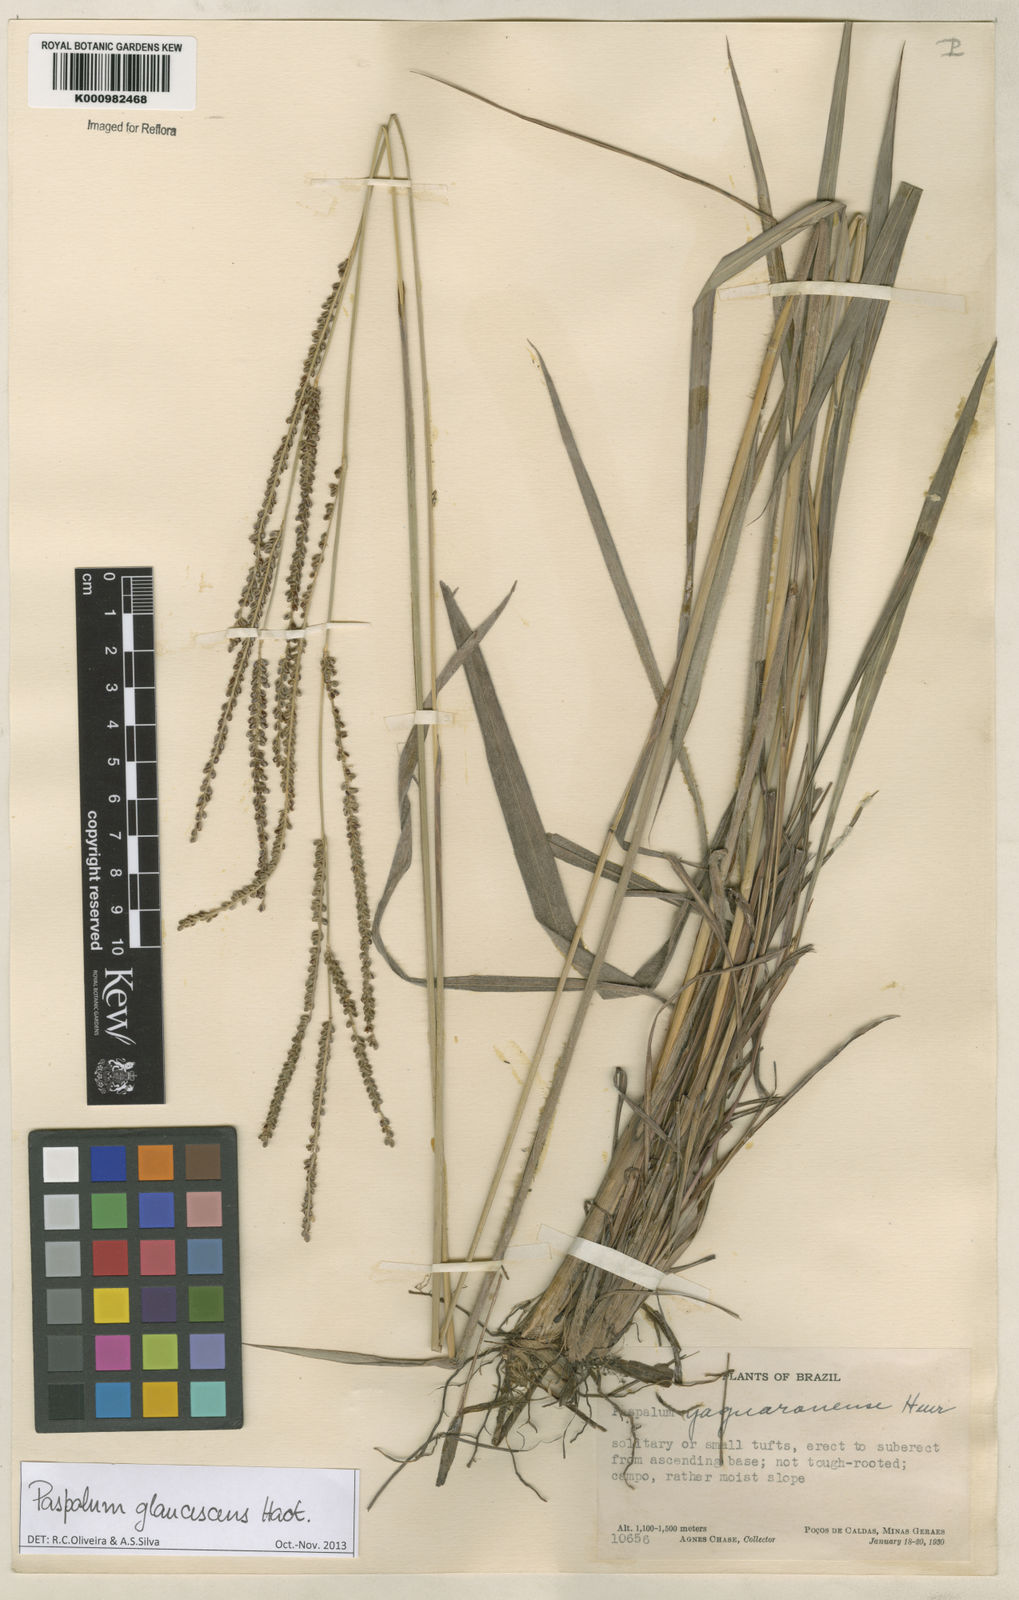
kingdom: Plantae
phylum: Tracheophyta
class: Liliopsida
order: Poales
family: Poaceae
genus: Paspalum
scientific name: Paspalum glaucescens
